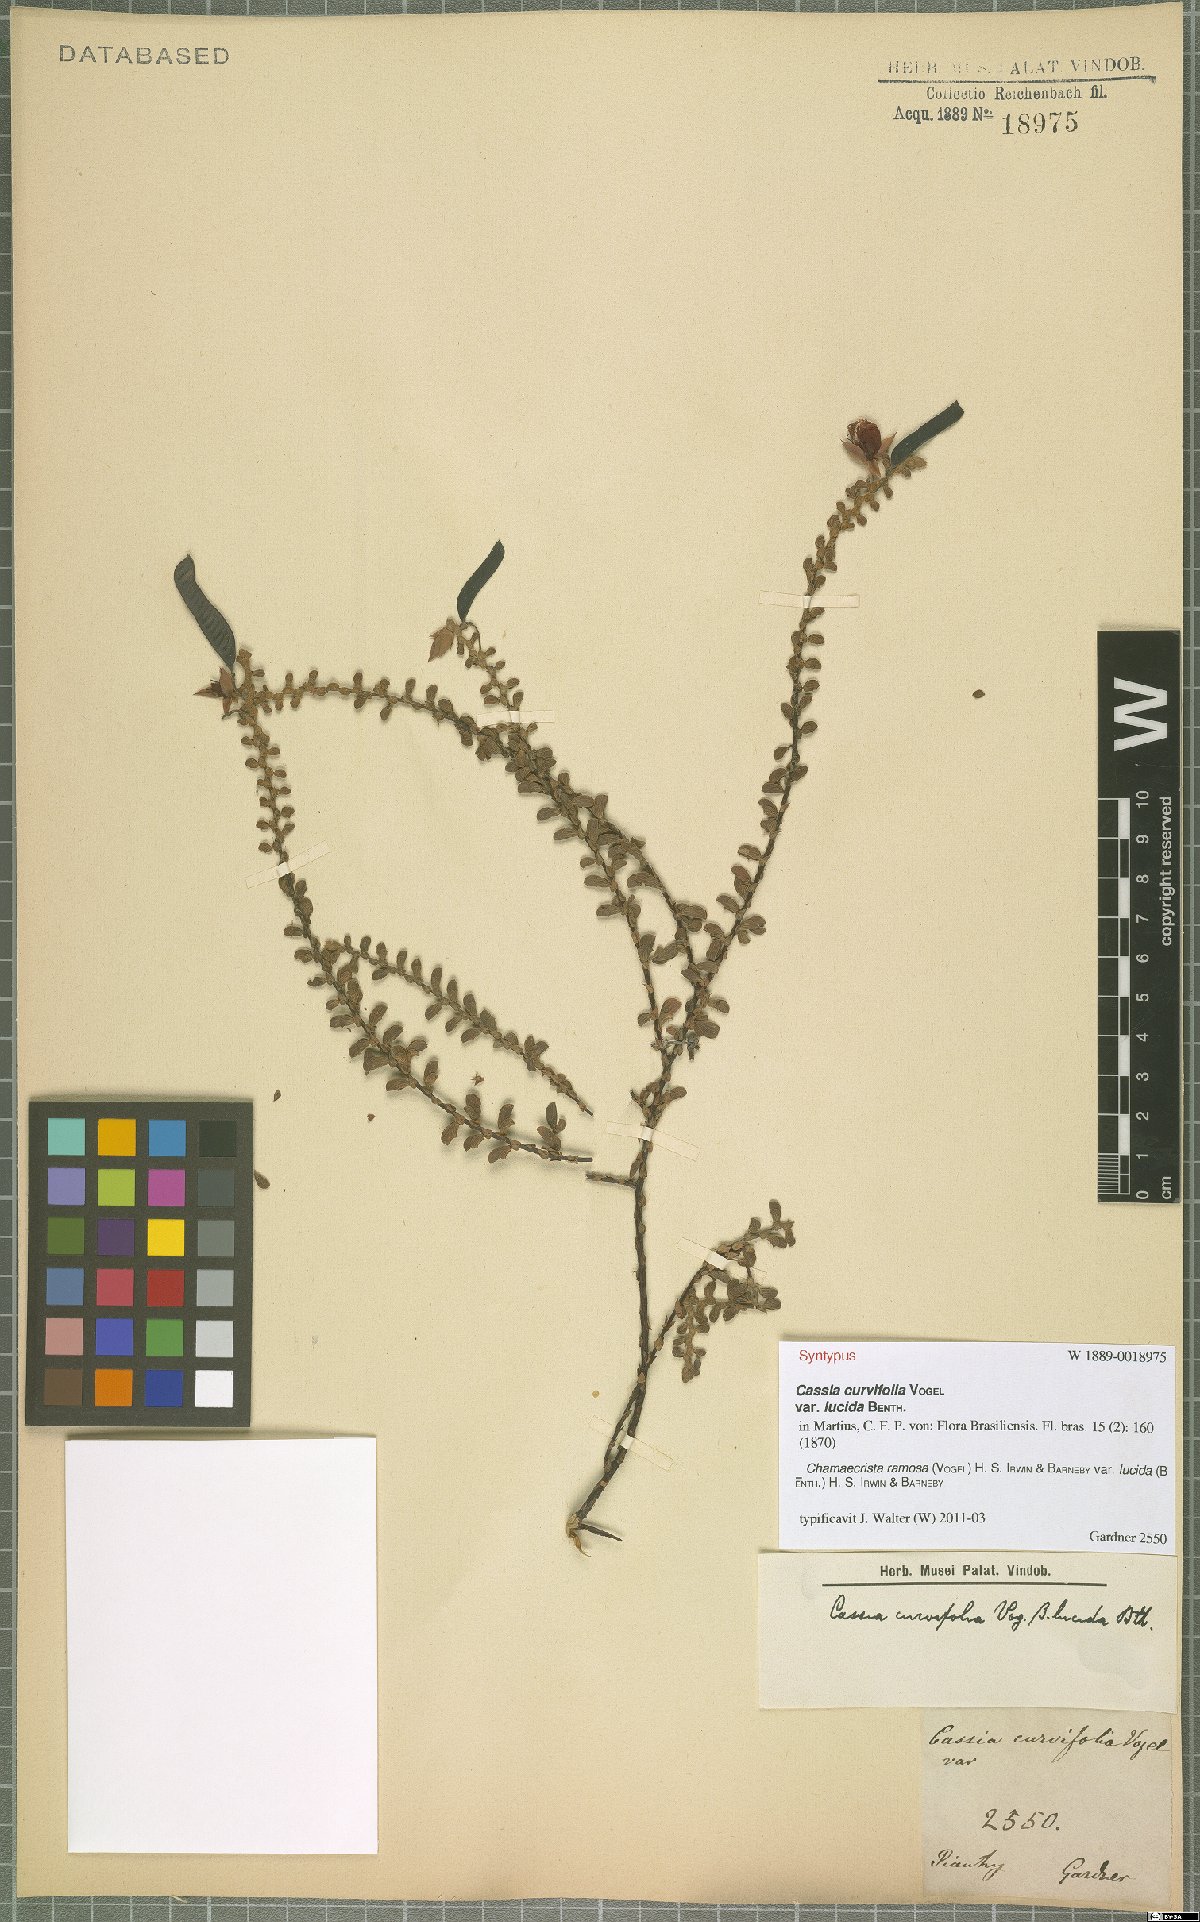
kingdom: Plantae
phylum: Tracheophyta
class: Magnoliopsida
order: Fabales
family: Fabaceae
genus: Chamaecrista
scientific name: Chamaecrista ramosa
